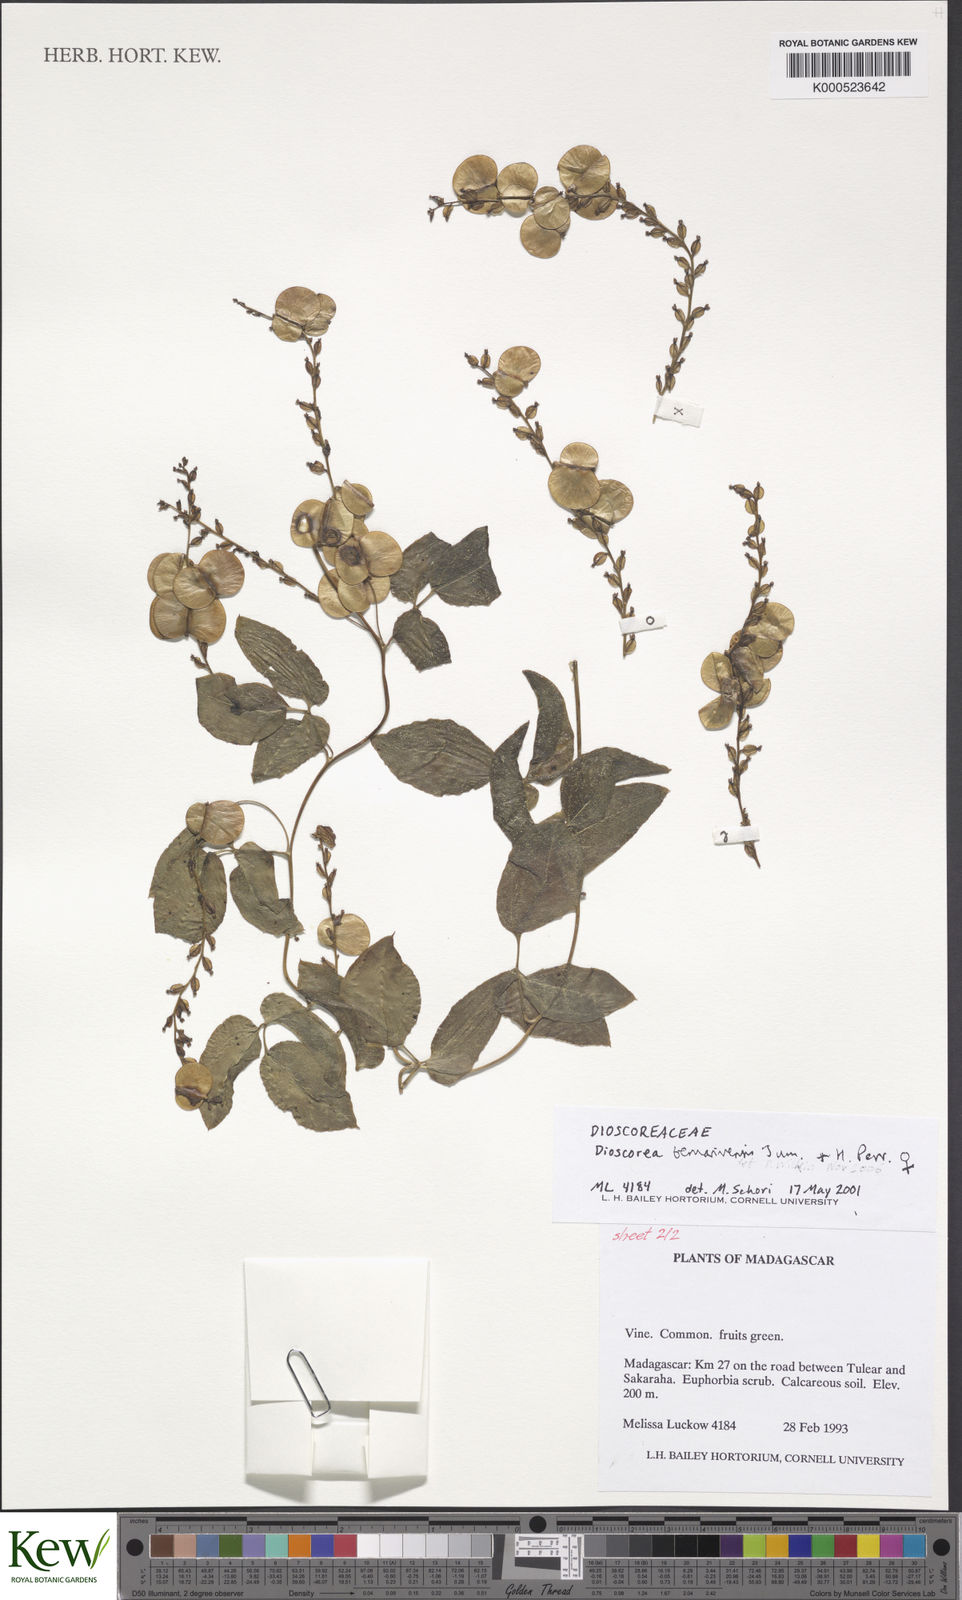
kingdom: Plantae
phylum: Tracheophyta
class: Liliopsida
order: Dioscoreales
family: Dioscoreaceae
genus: Dioscorea
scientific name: Dioscorea bemarivensis
